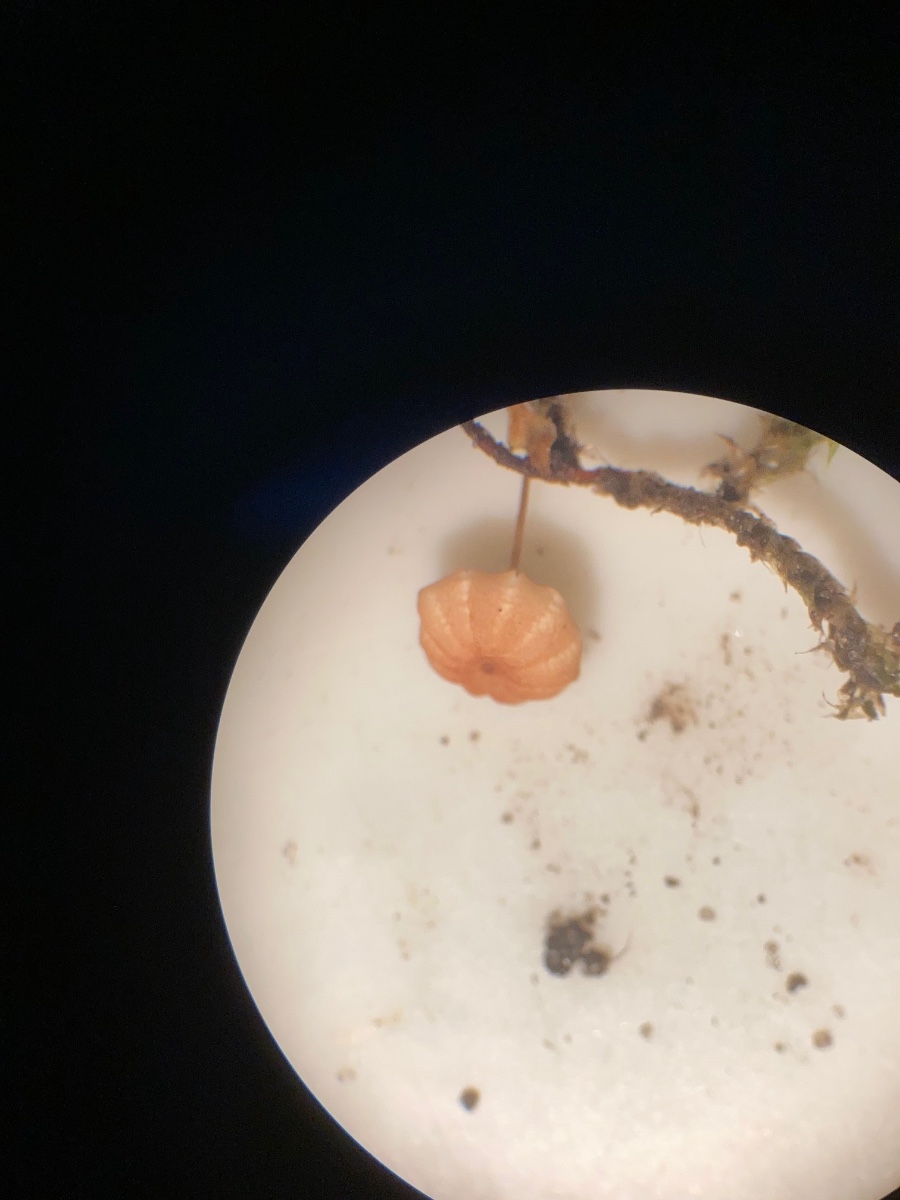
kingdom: Fungi
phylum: Basidiomycota
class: Agaricomycetes
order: Agaricales
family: Marasmiaceae
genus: Marasmius
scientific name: Marasmius curreyi
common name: teglrød bruskhat
